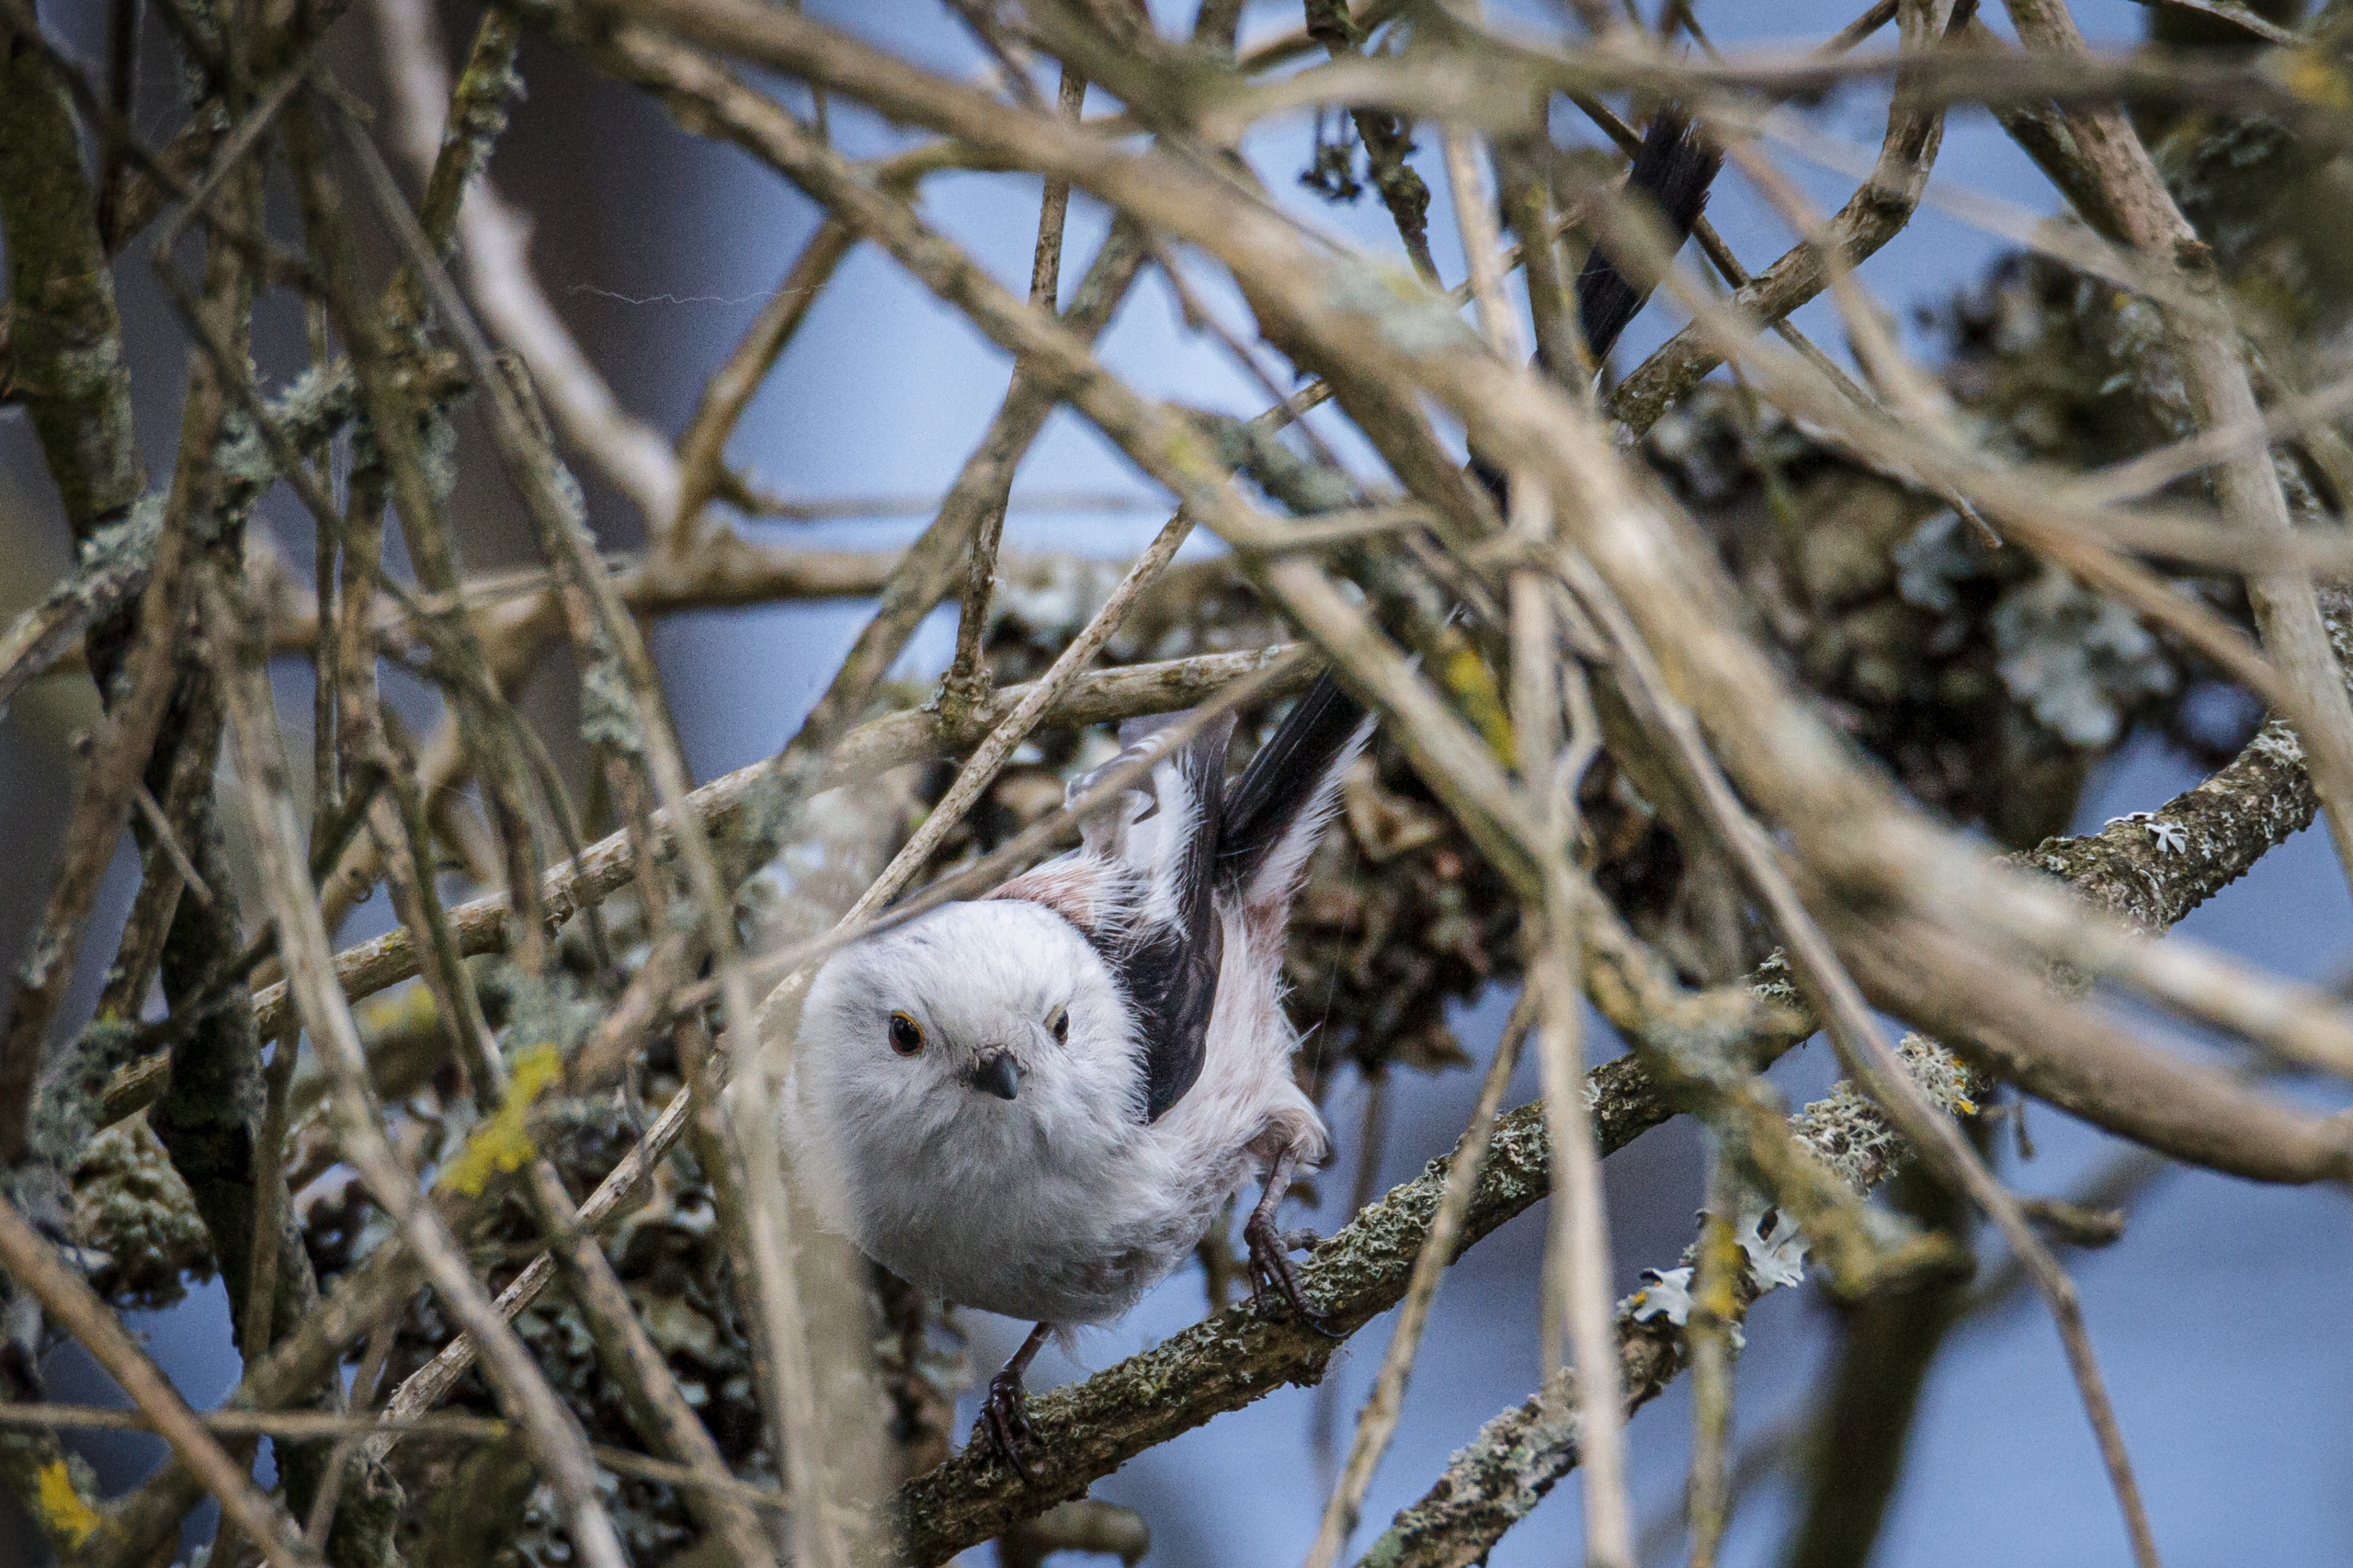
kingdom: Animalia
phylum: Chordata
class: Aves
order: Passeriformes
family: Aegithalidae
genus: Aegithalos
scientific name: Aegithalos caudatus
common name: Halemejse
